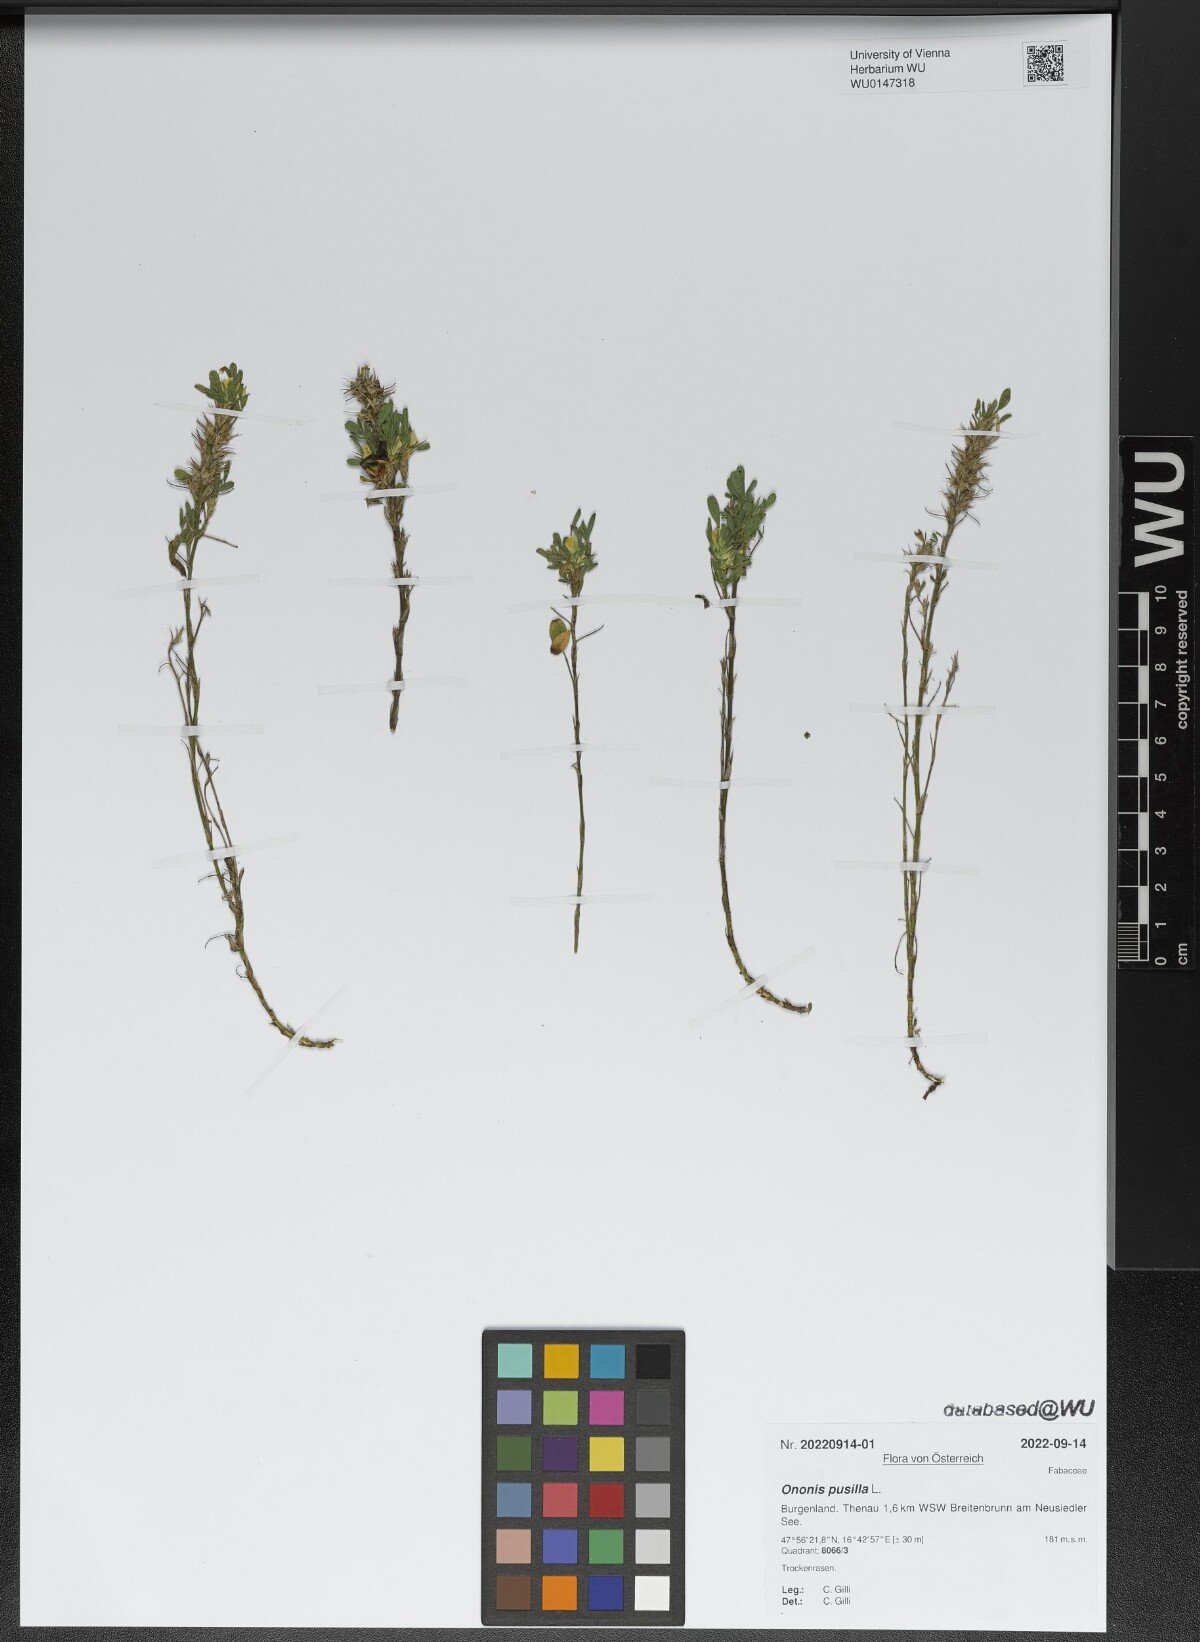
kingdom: Plantae
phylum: Tracheophyta
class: Magnoliopsida
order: Fabales
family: Fabaceae
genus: Ononis
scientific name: Ononis pusilla
